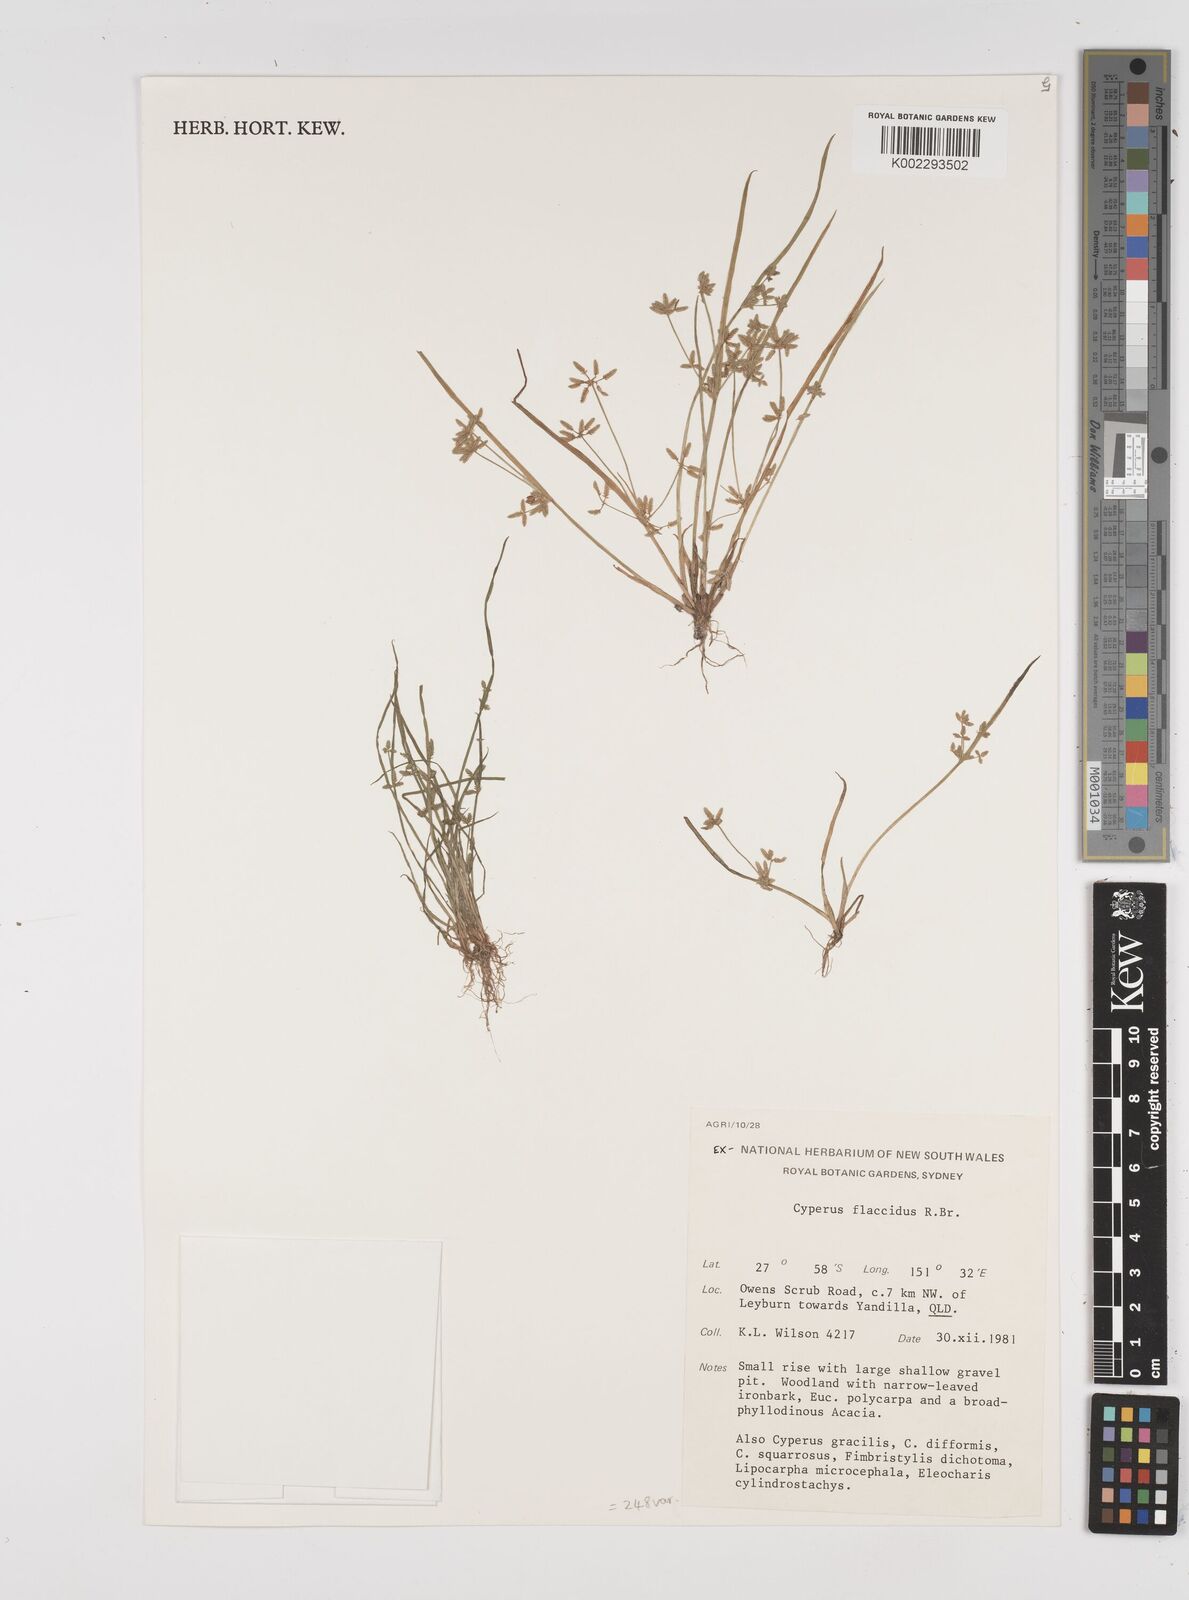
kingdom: Plantae
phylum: Tracheophyta
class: Liliopsida
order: Poales
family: Cyperaceae
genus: Cyperus
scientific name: Cyperus flaccidus
